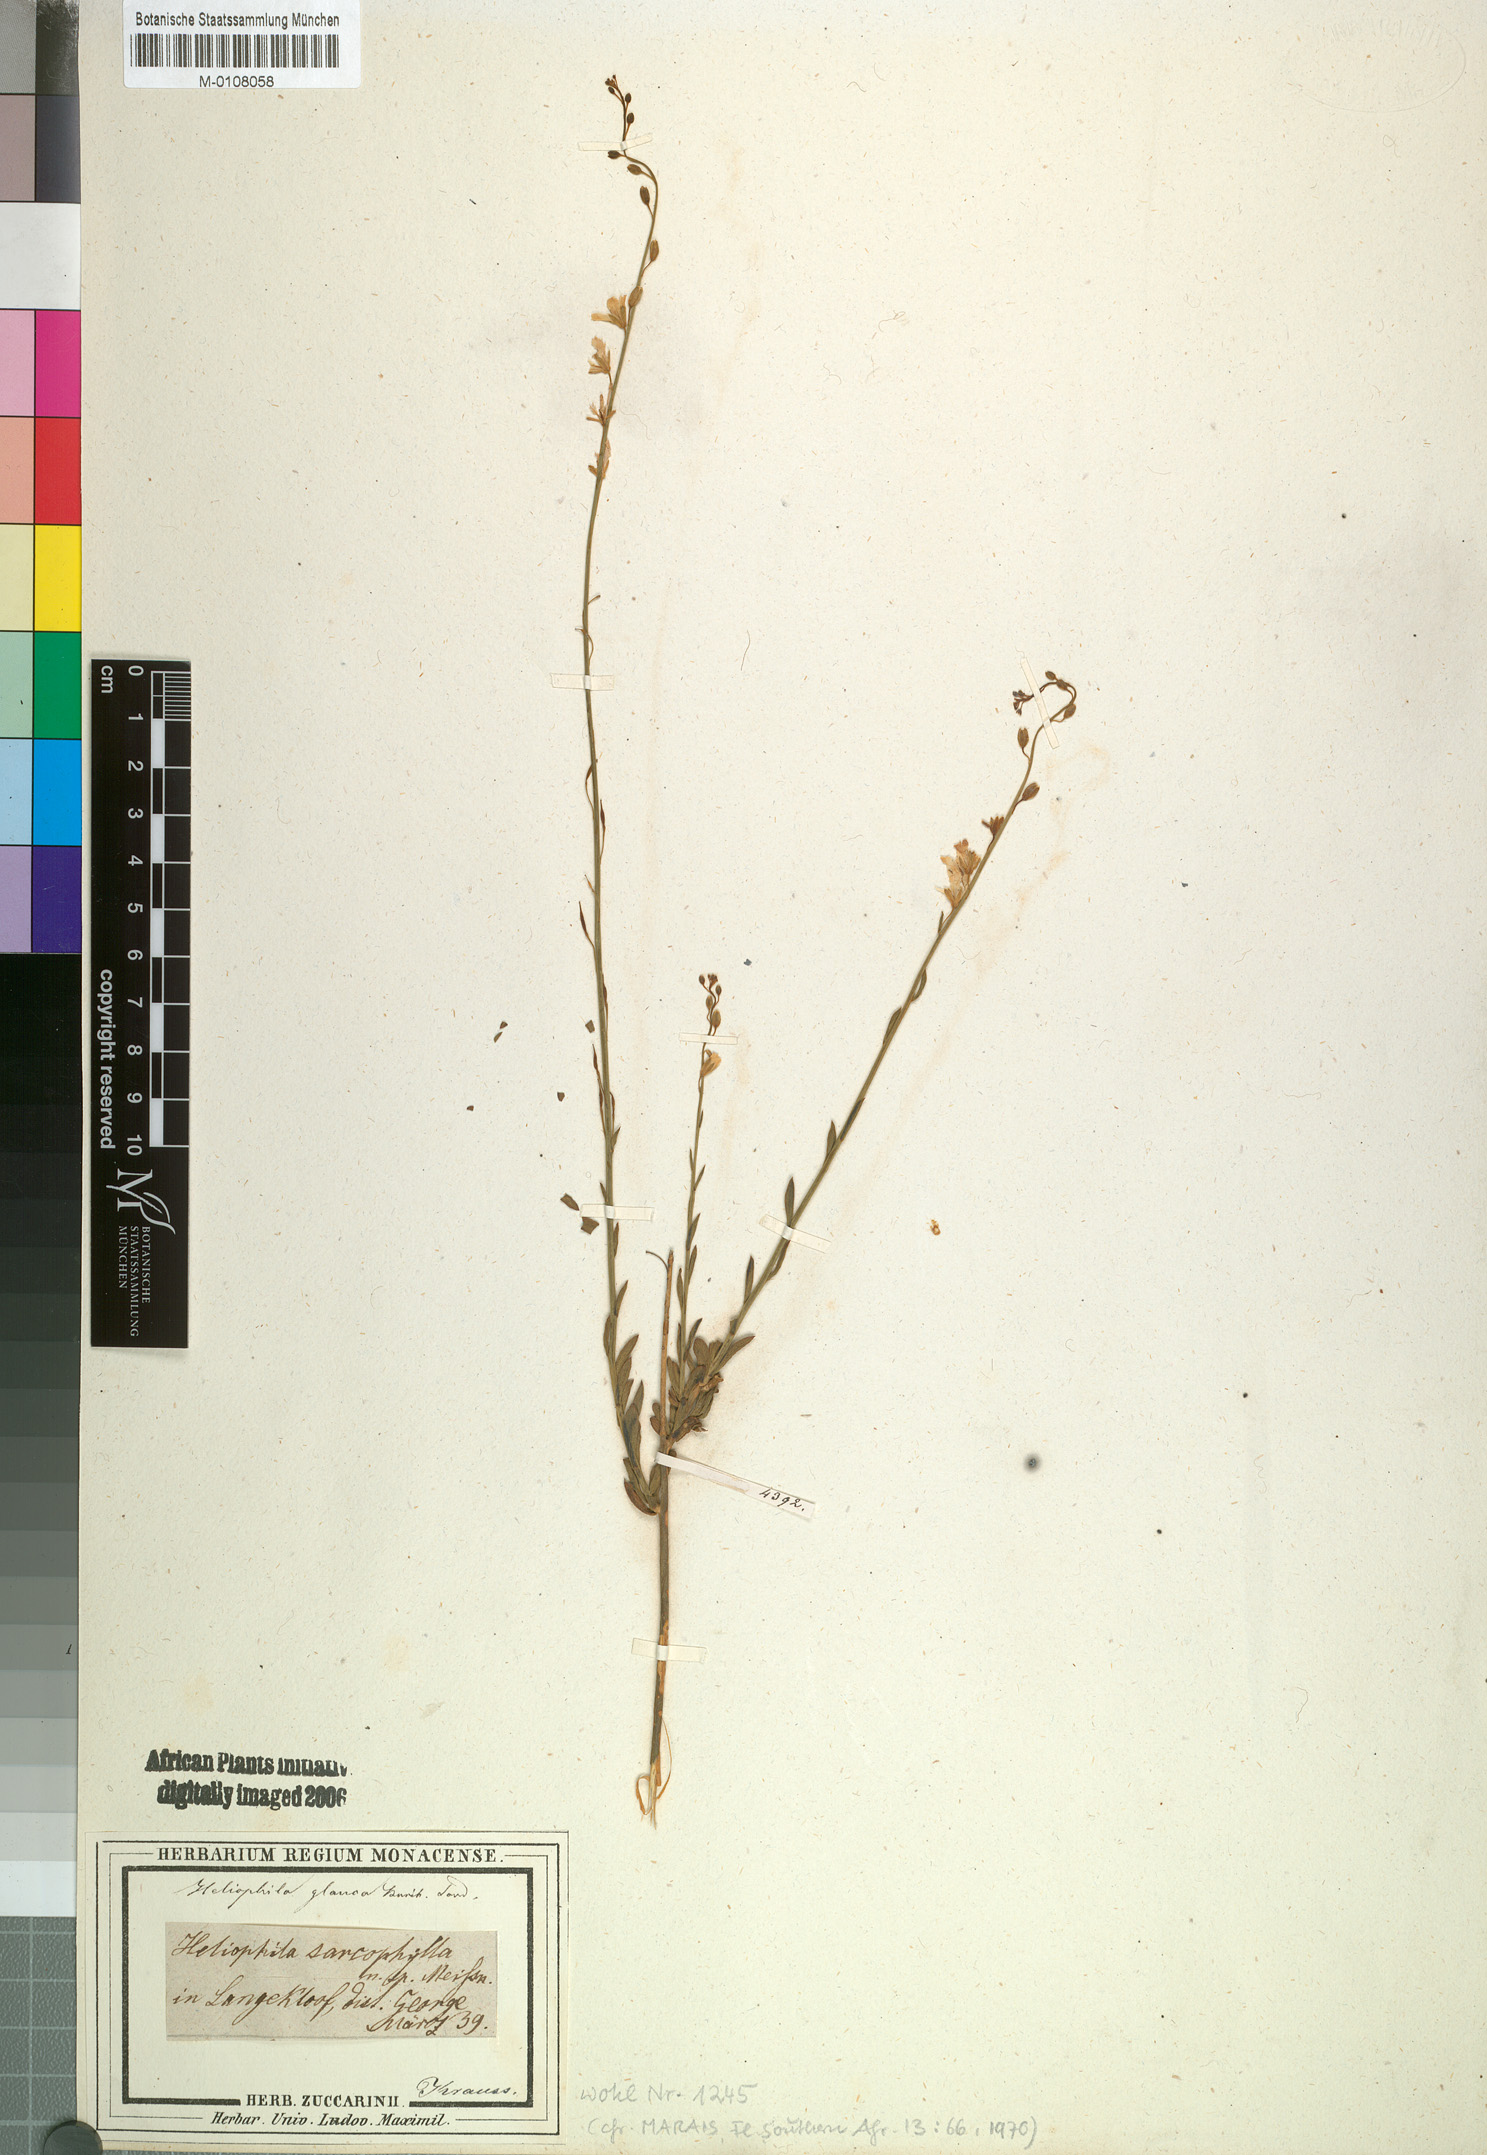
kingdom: Plantae
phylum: Tracheophyta
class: Magnoliopsida
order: Brassicales
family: Brassicaceae
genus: Heliophila
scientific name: Heliophila glauca
